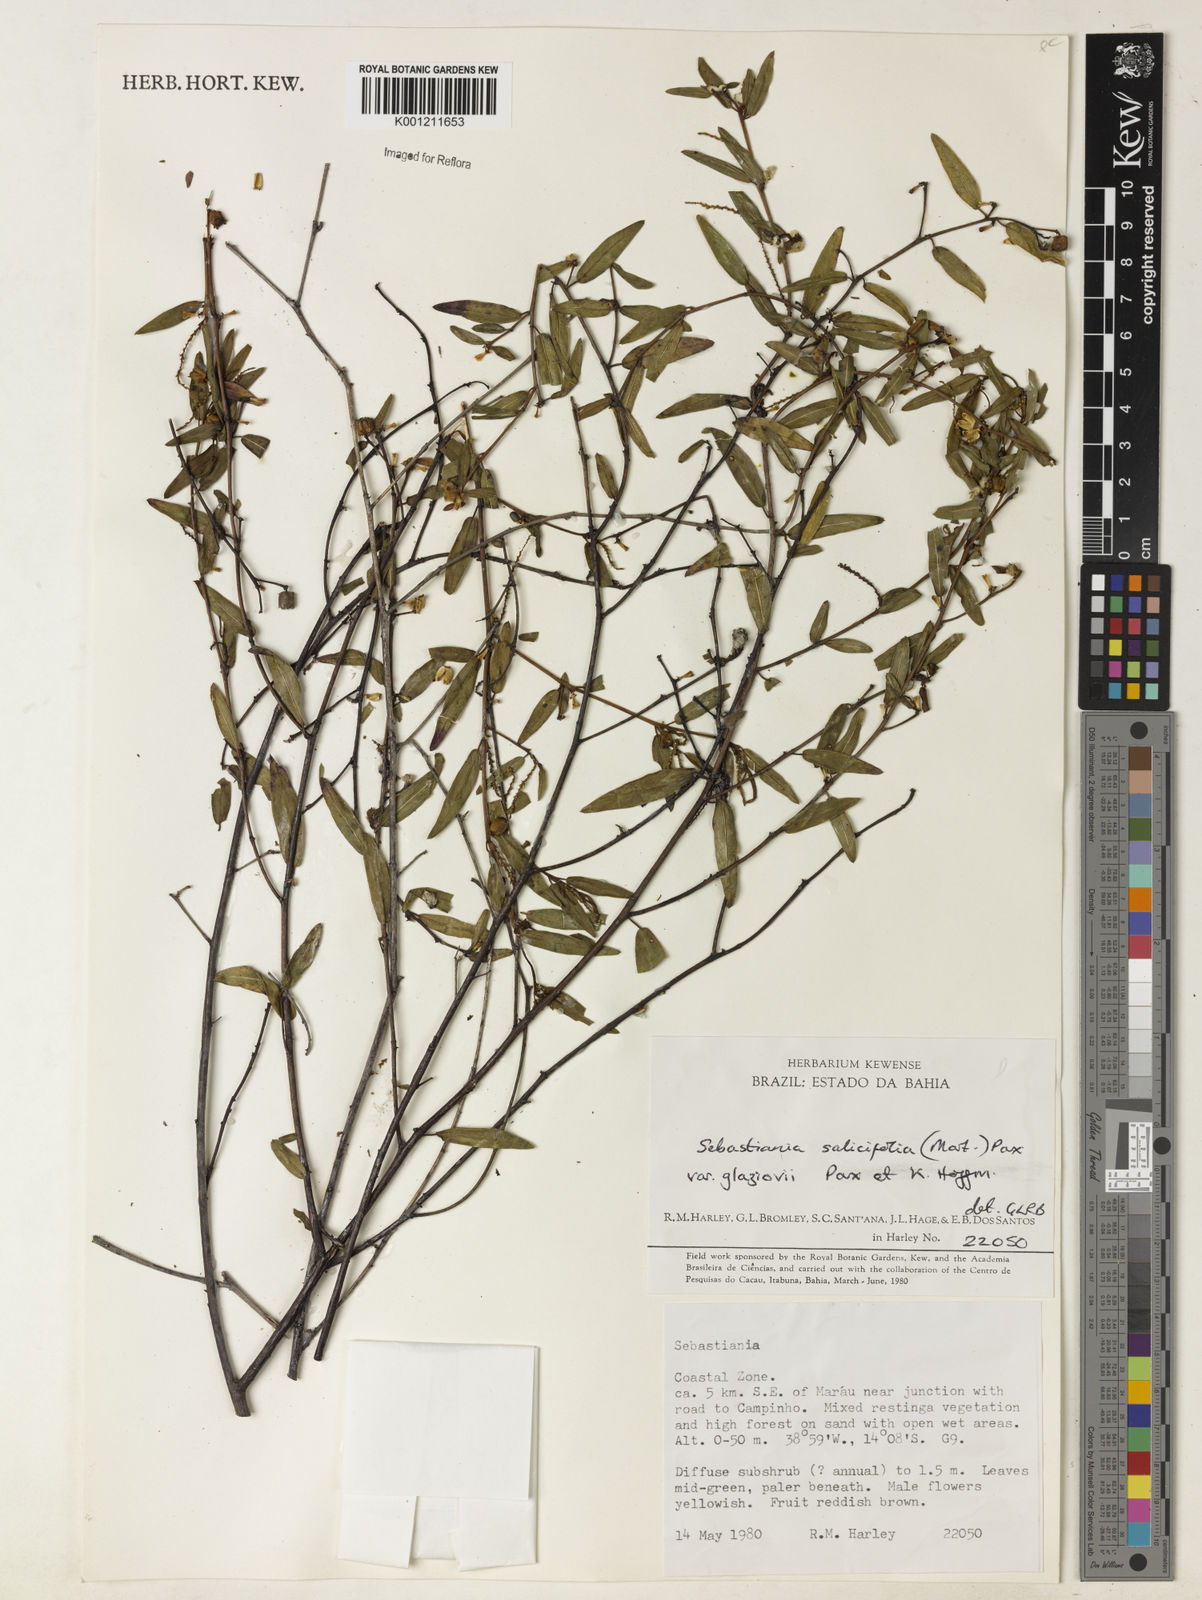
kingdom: Plantae
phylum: Tracheophyta
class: Magnoliopsida
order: Malpighiales
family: Euphorbiaceae
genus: Microstachys
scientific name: Microstachys
